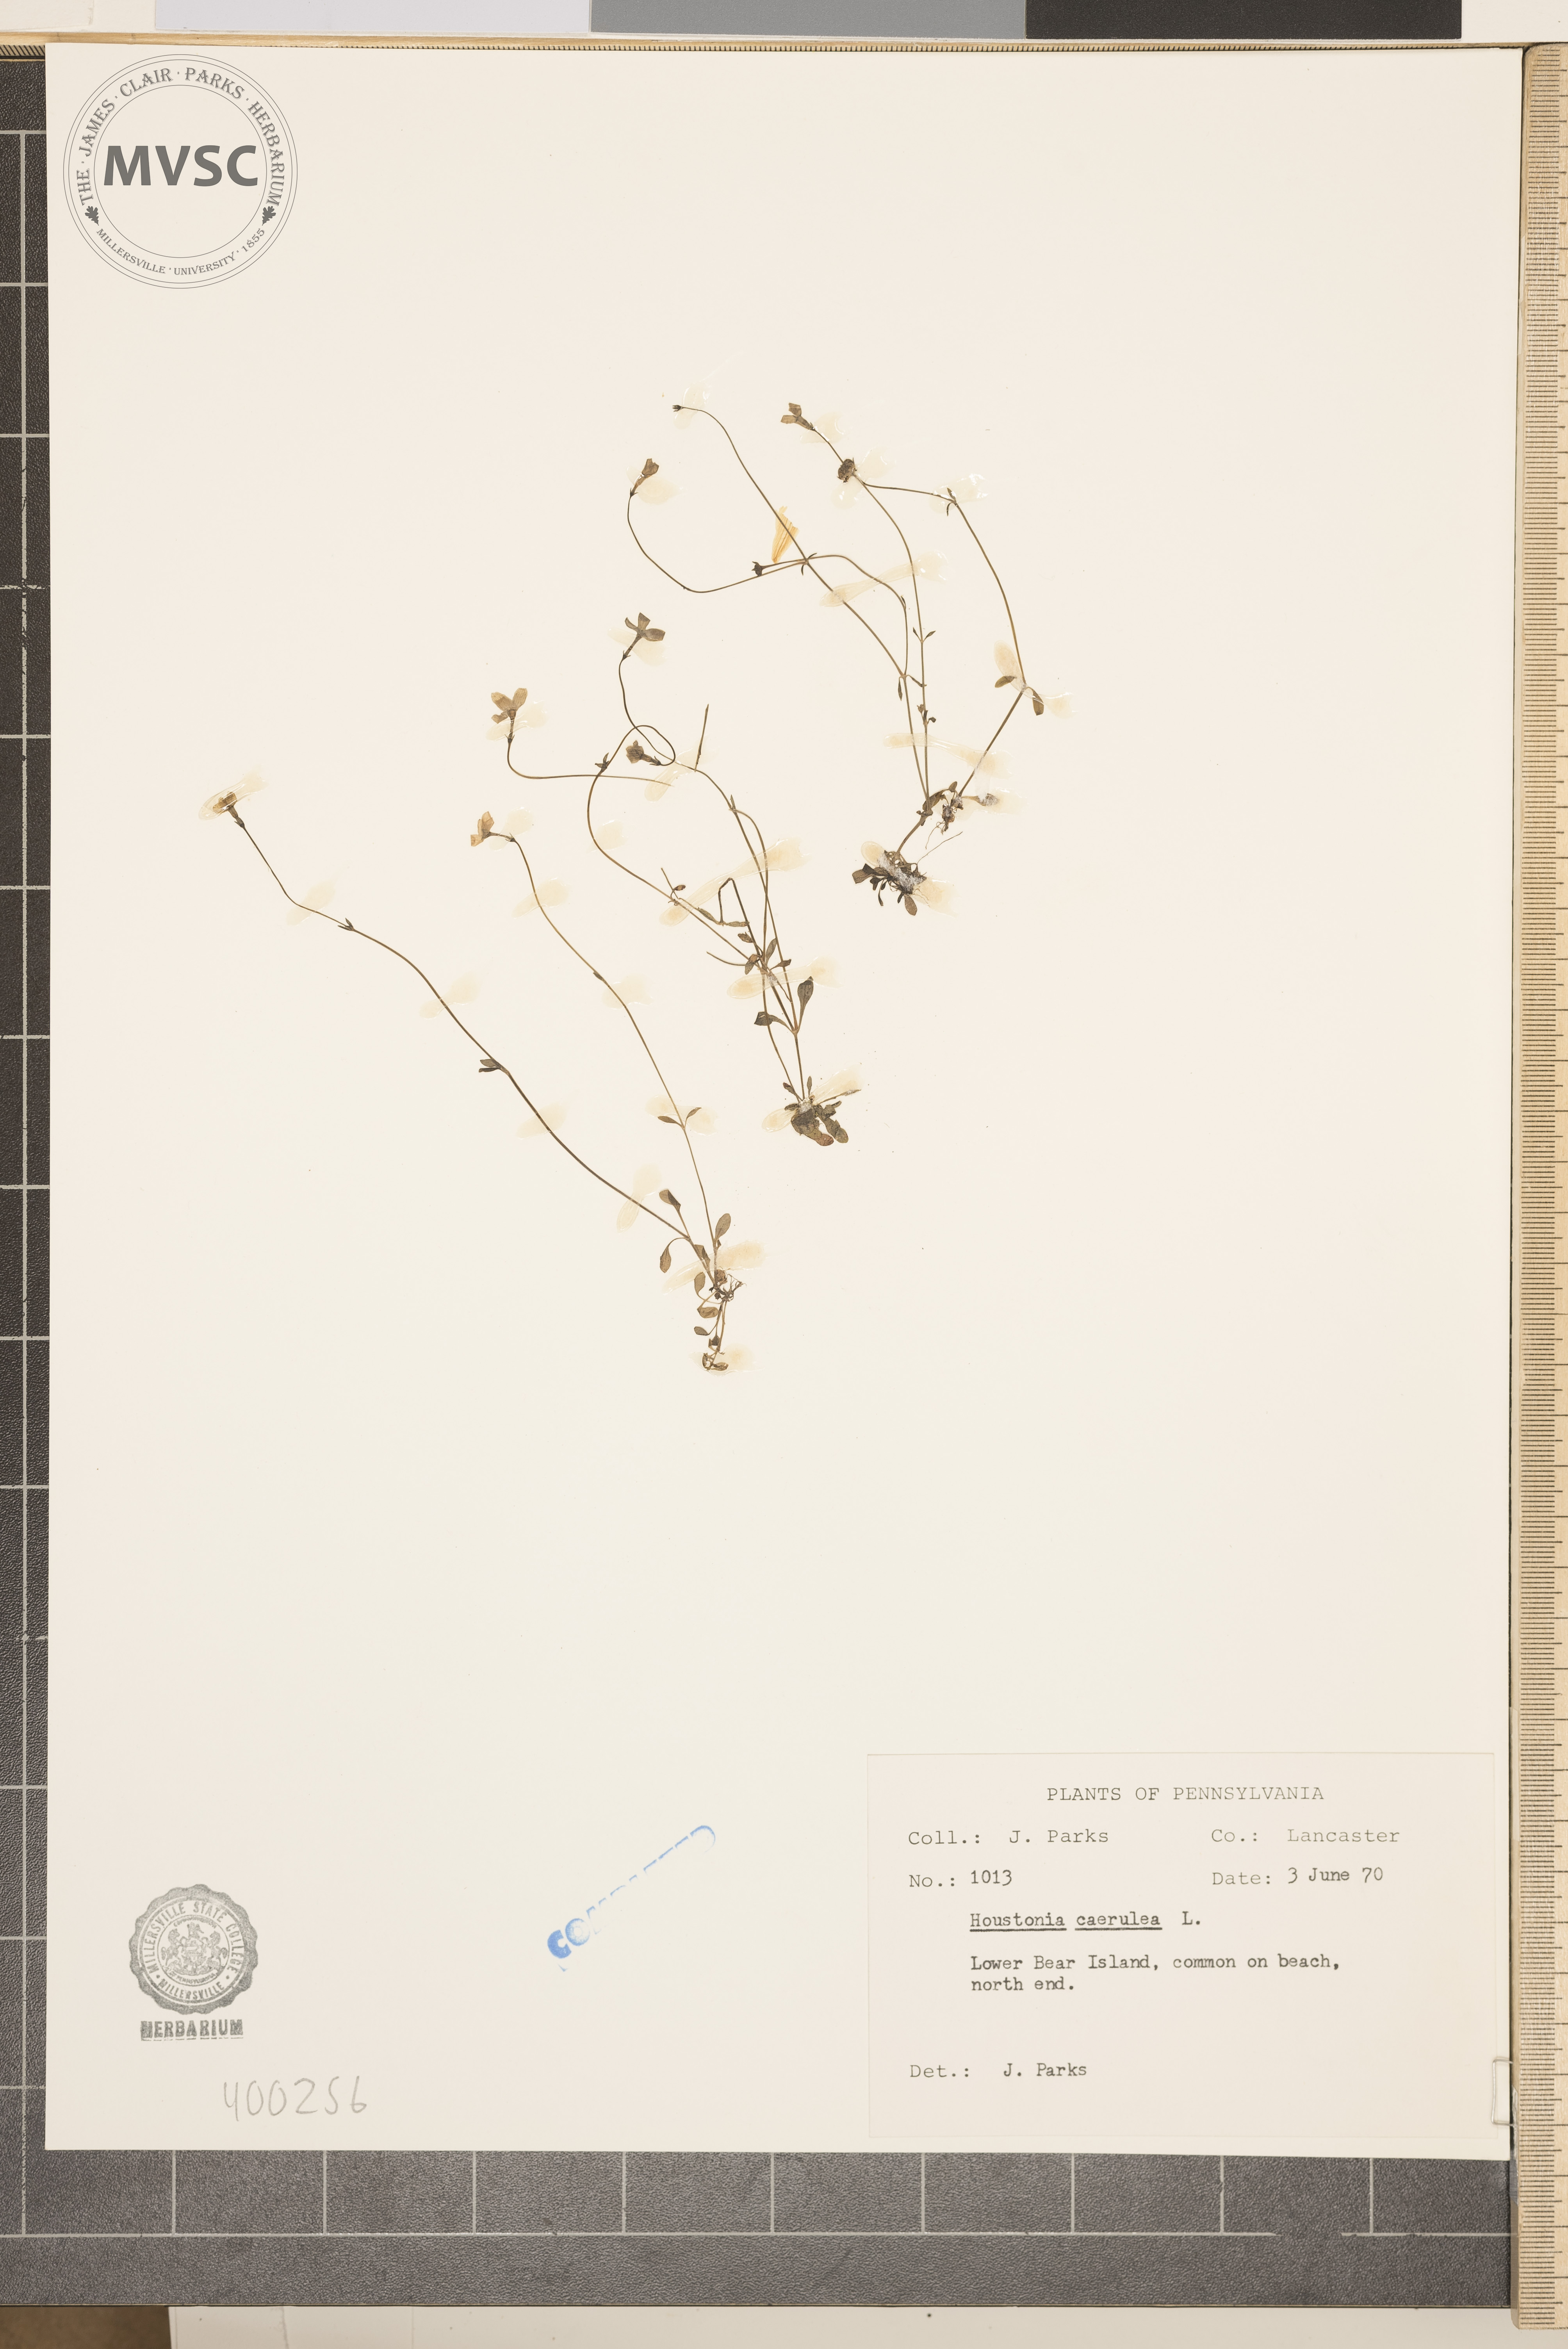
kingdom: Plantae
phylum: Tracheophyta
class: Magnoliopsida
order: Gentianales
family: Rubiaceae
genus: Houstonia
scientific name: Houstonia caerulea
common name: bluets
